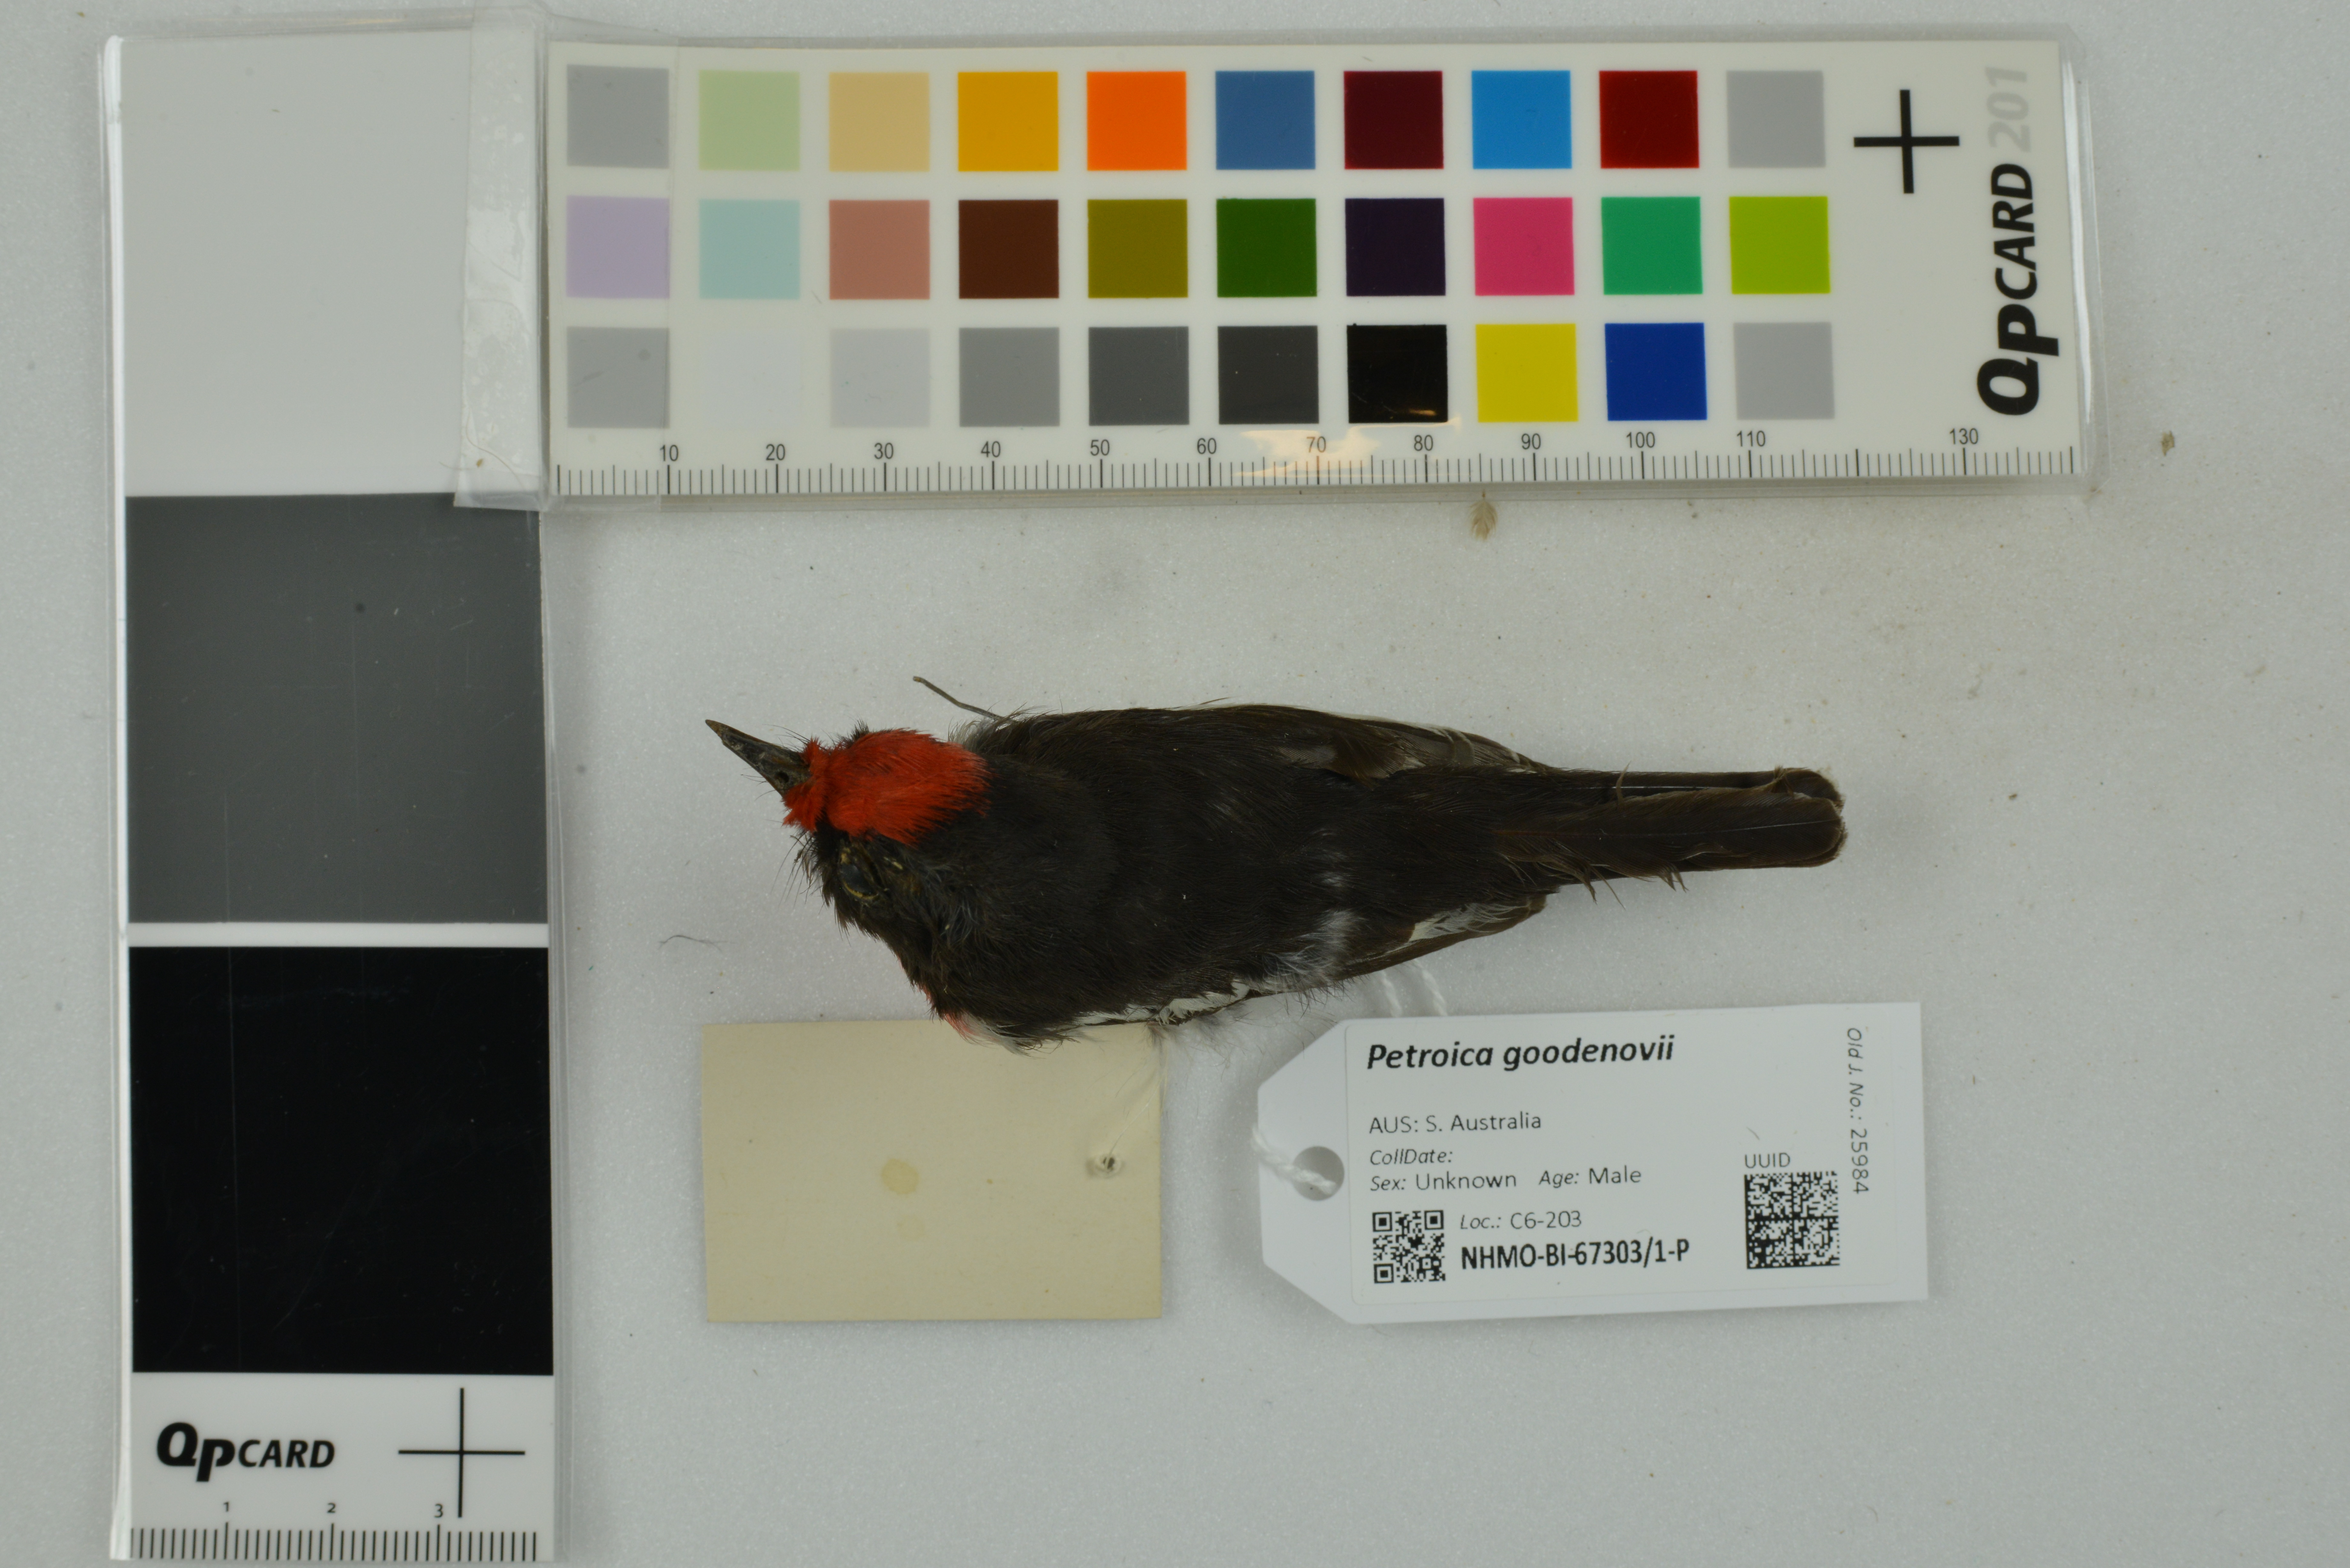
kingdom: Animalia
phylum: Chordata
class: Aves
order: Passeriformes
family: Petroicidae
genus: Petroica
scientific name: Petroica goodenovii
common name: Red-capped robin
